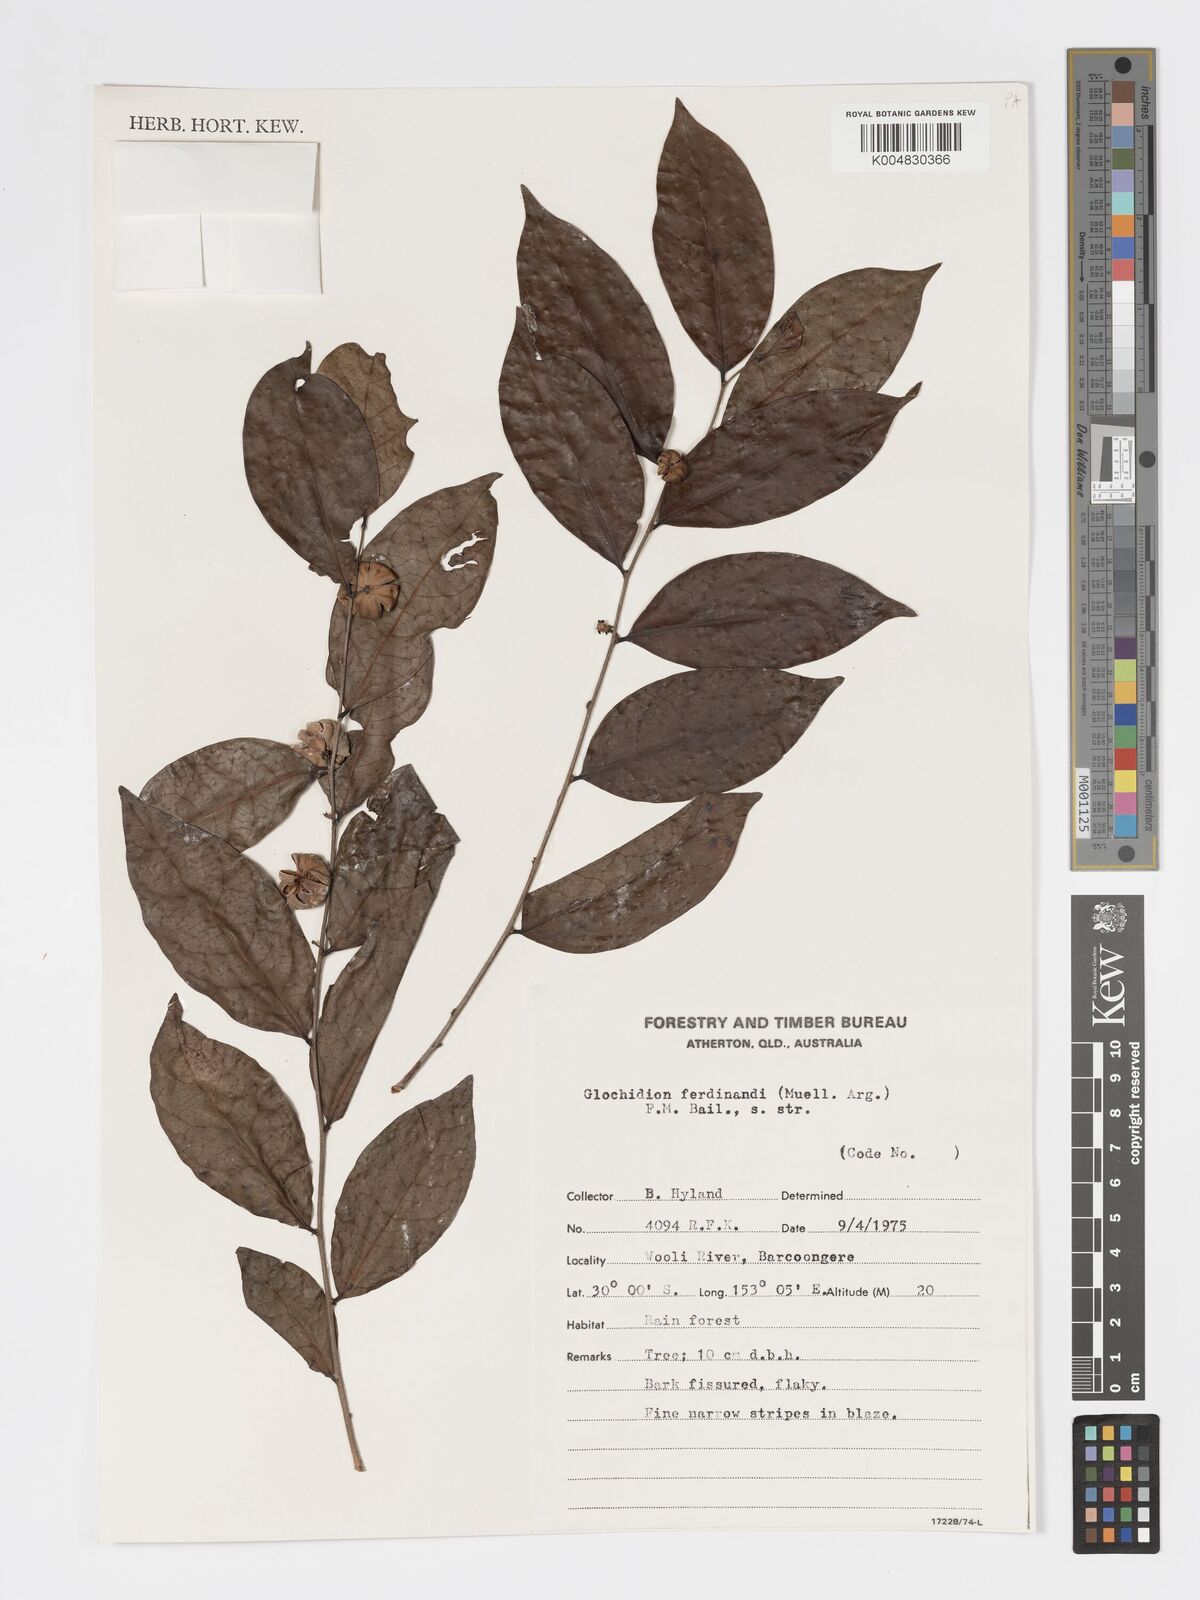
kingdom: Plantae
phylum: Tracheophyta
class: Magnoliopsida
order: Malpighiales
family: Phyllanthaceae
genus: Glochidion
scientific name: Glochidion ferdinandi
